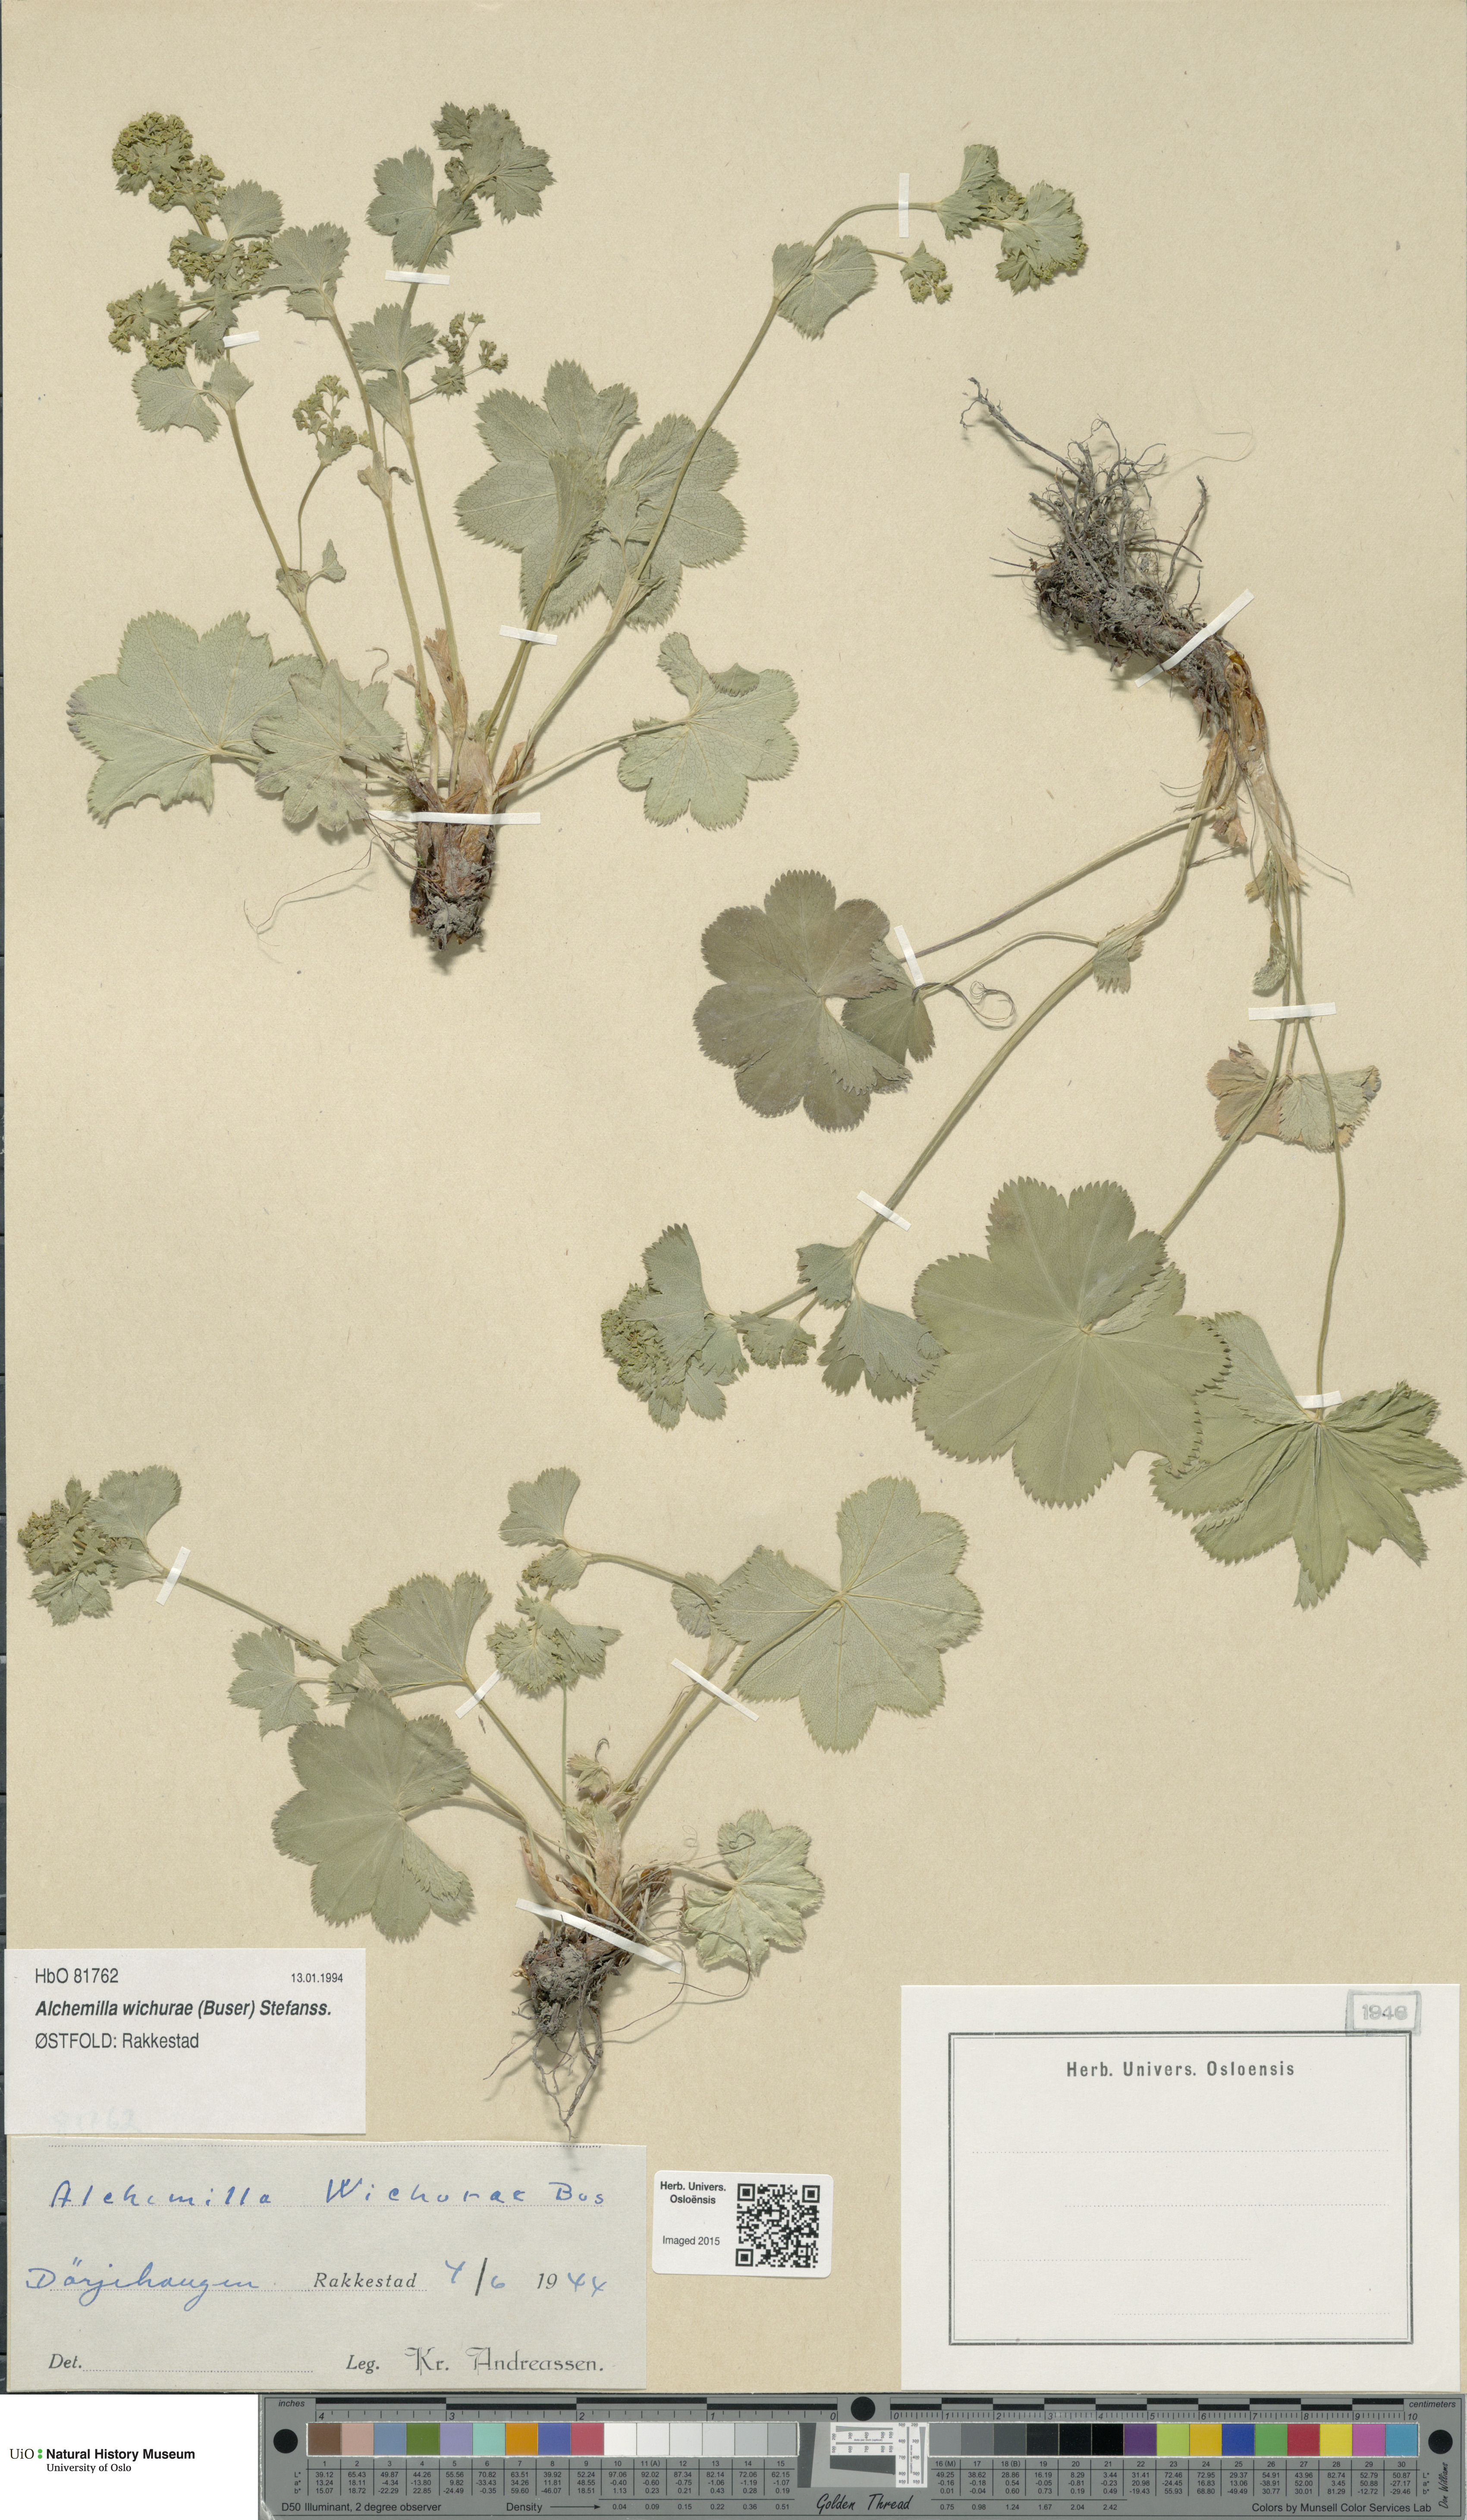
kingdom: Plantae
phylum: Tracheophyta
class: Magnoliopsida
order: Rosales
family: Rosaceae
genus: Alchemilla
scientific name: Alchemilla wichurae
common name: Rock lady's mantle
